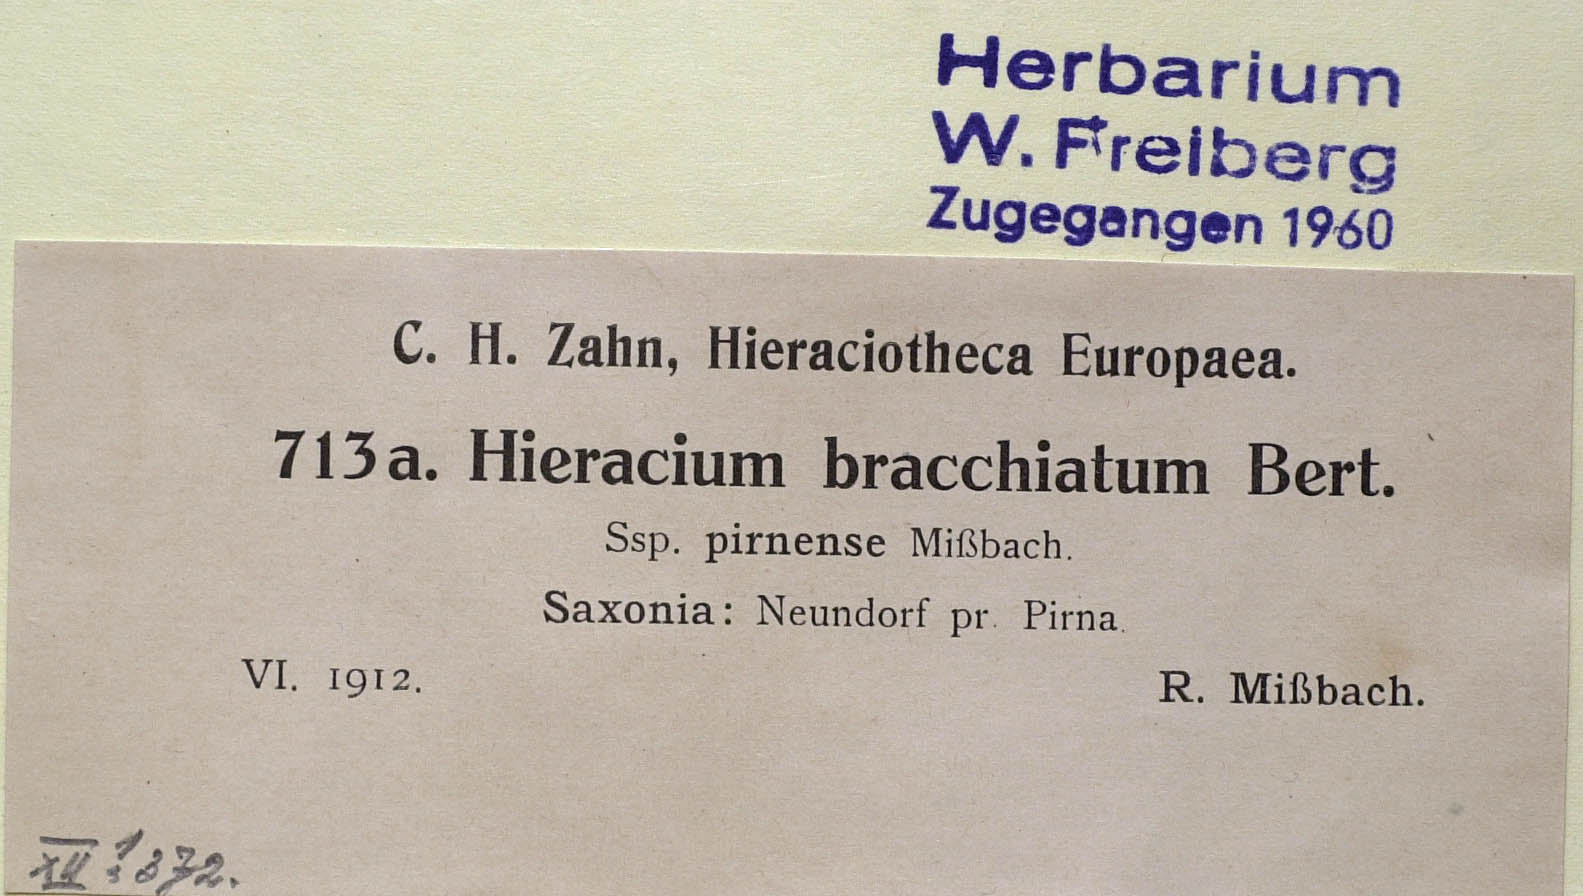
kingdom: Plantae
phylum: Tracheophyta
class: Magnoliopsida
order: Asterales
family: Asteraceae
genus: Pilosella
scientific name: Pilosella acutifolia
